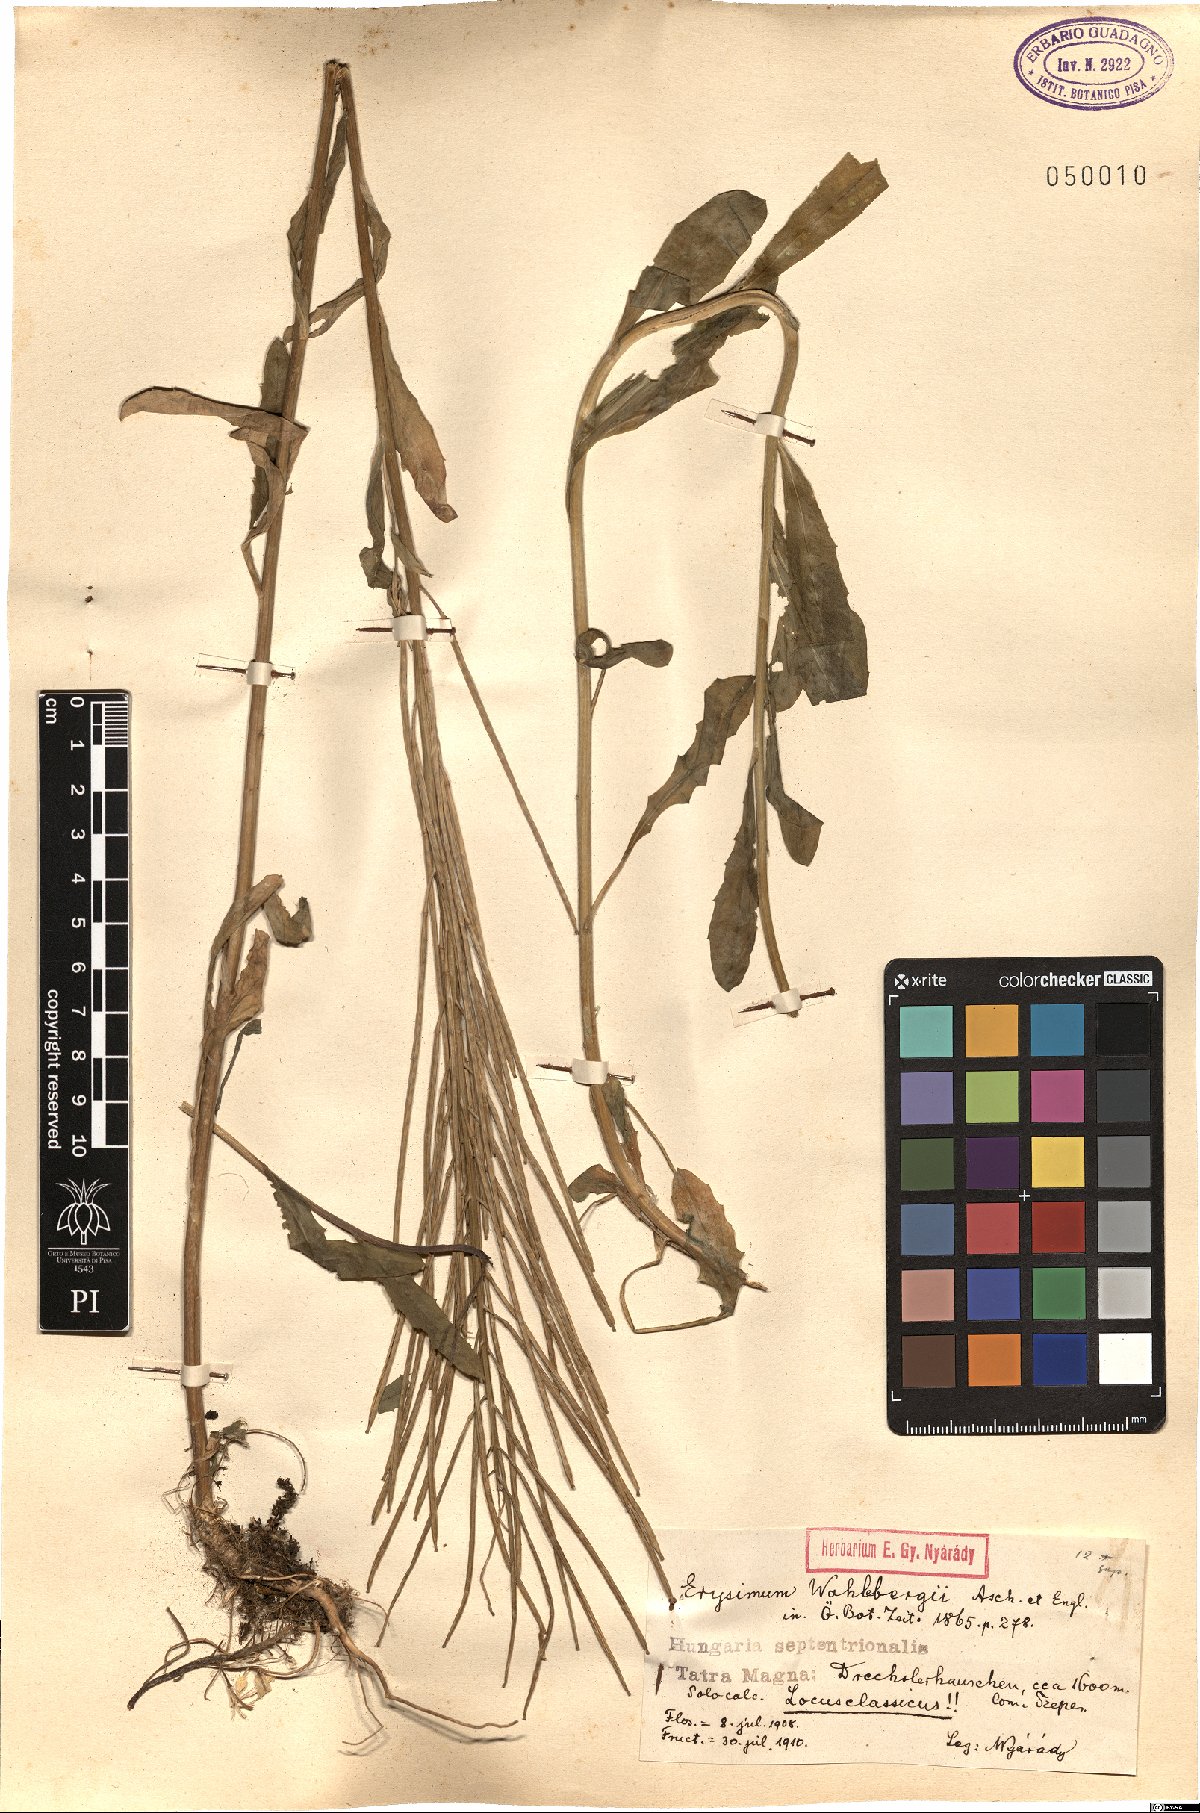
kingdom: Plantae
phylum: Tracheophyta
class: Magnoliopsida
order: Brassicales
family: Brassicaceae
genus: Erysimum
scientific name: Erysimum hungaricum
